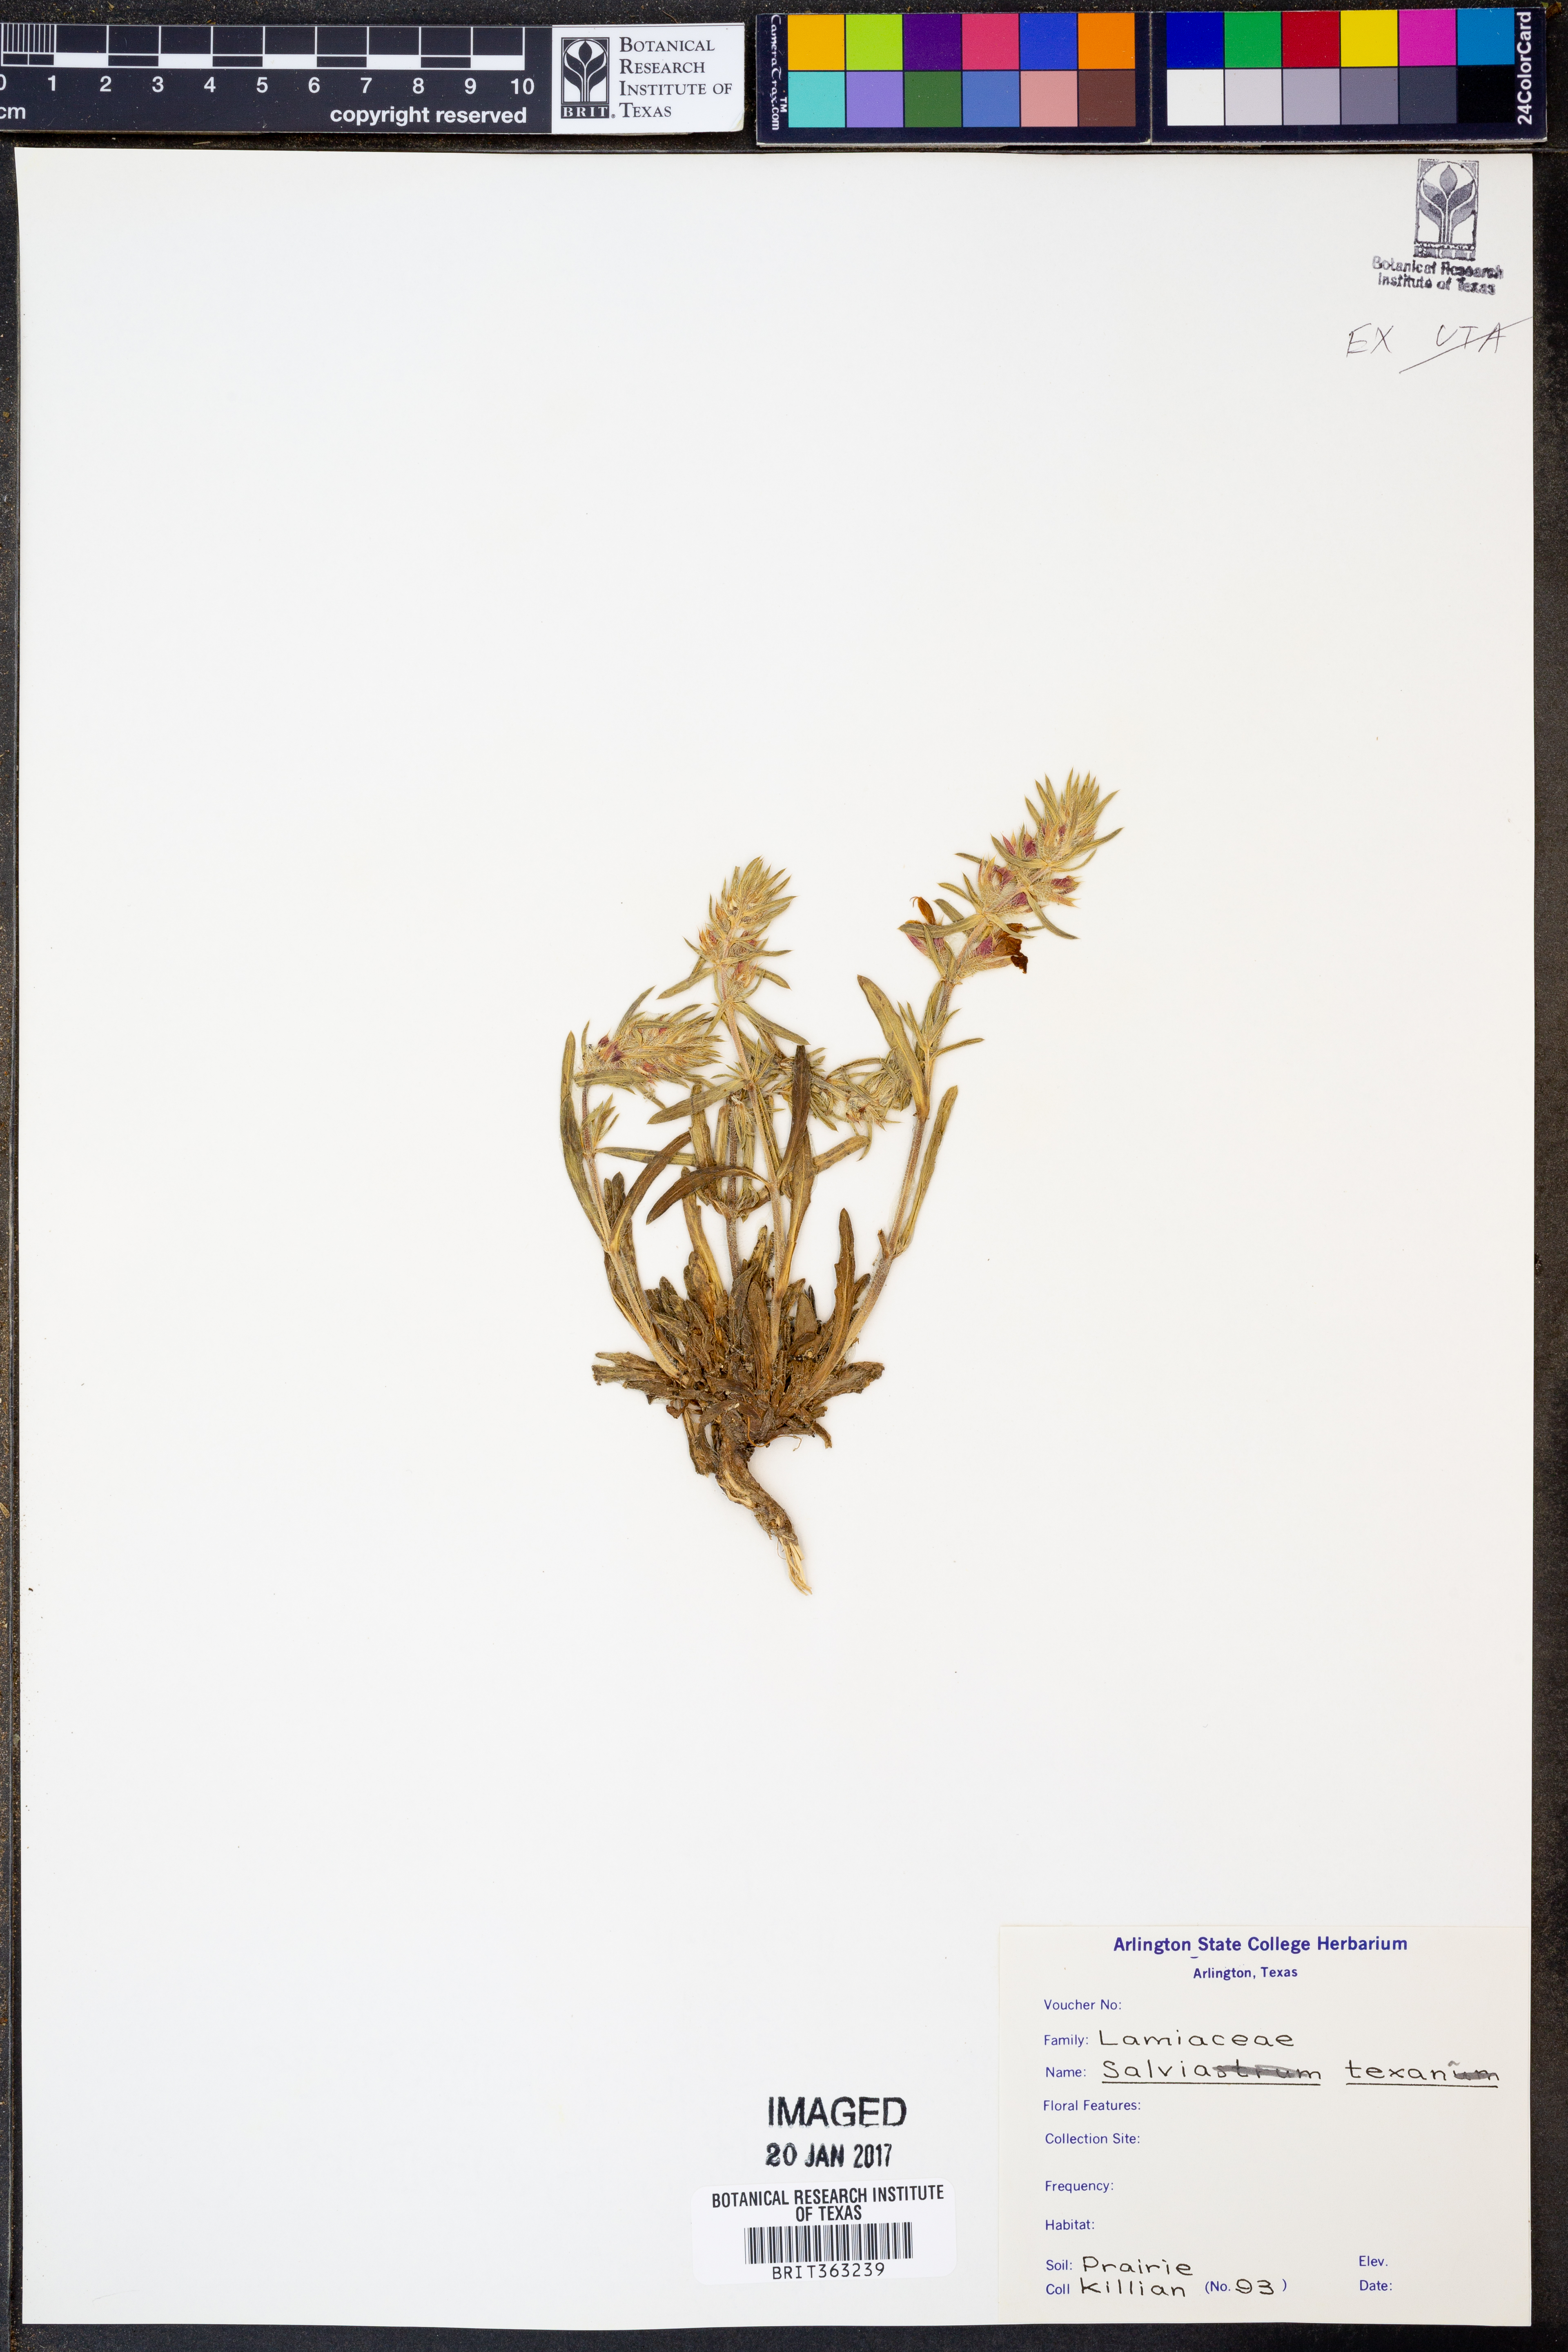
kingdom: Plantae
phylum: Tracheophyta
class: Magnoliopsida
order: Lamiales
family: Lamiaceae
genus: Salvia
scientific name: Salvia texana
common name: Texas sage
